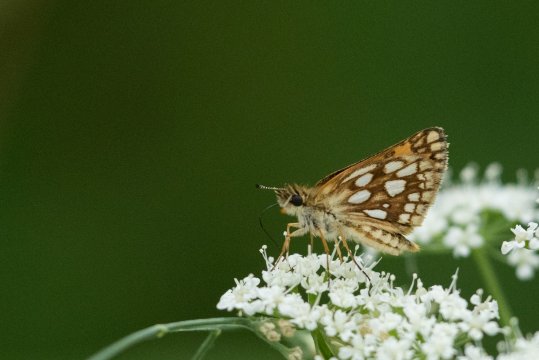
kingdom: Animalia
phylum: Arthropoda
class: Insecta
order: Lepidoptera
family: Hesperiidae
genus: Carterocephalus
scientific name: Carterocephalus palaemon
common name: Chequered Skipper
